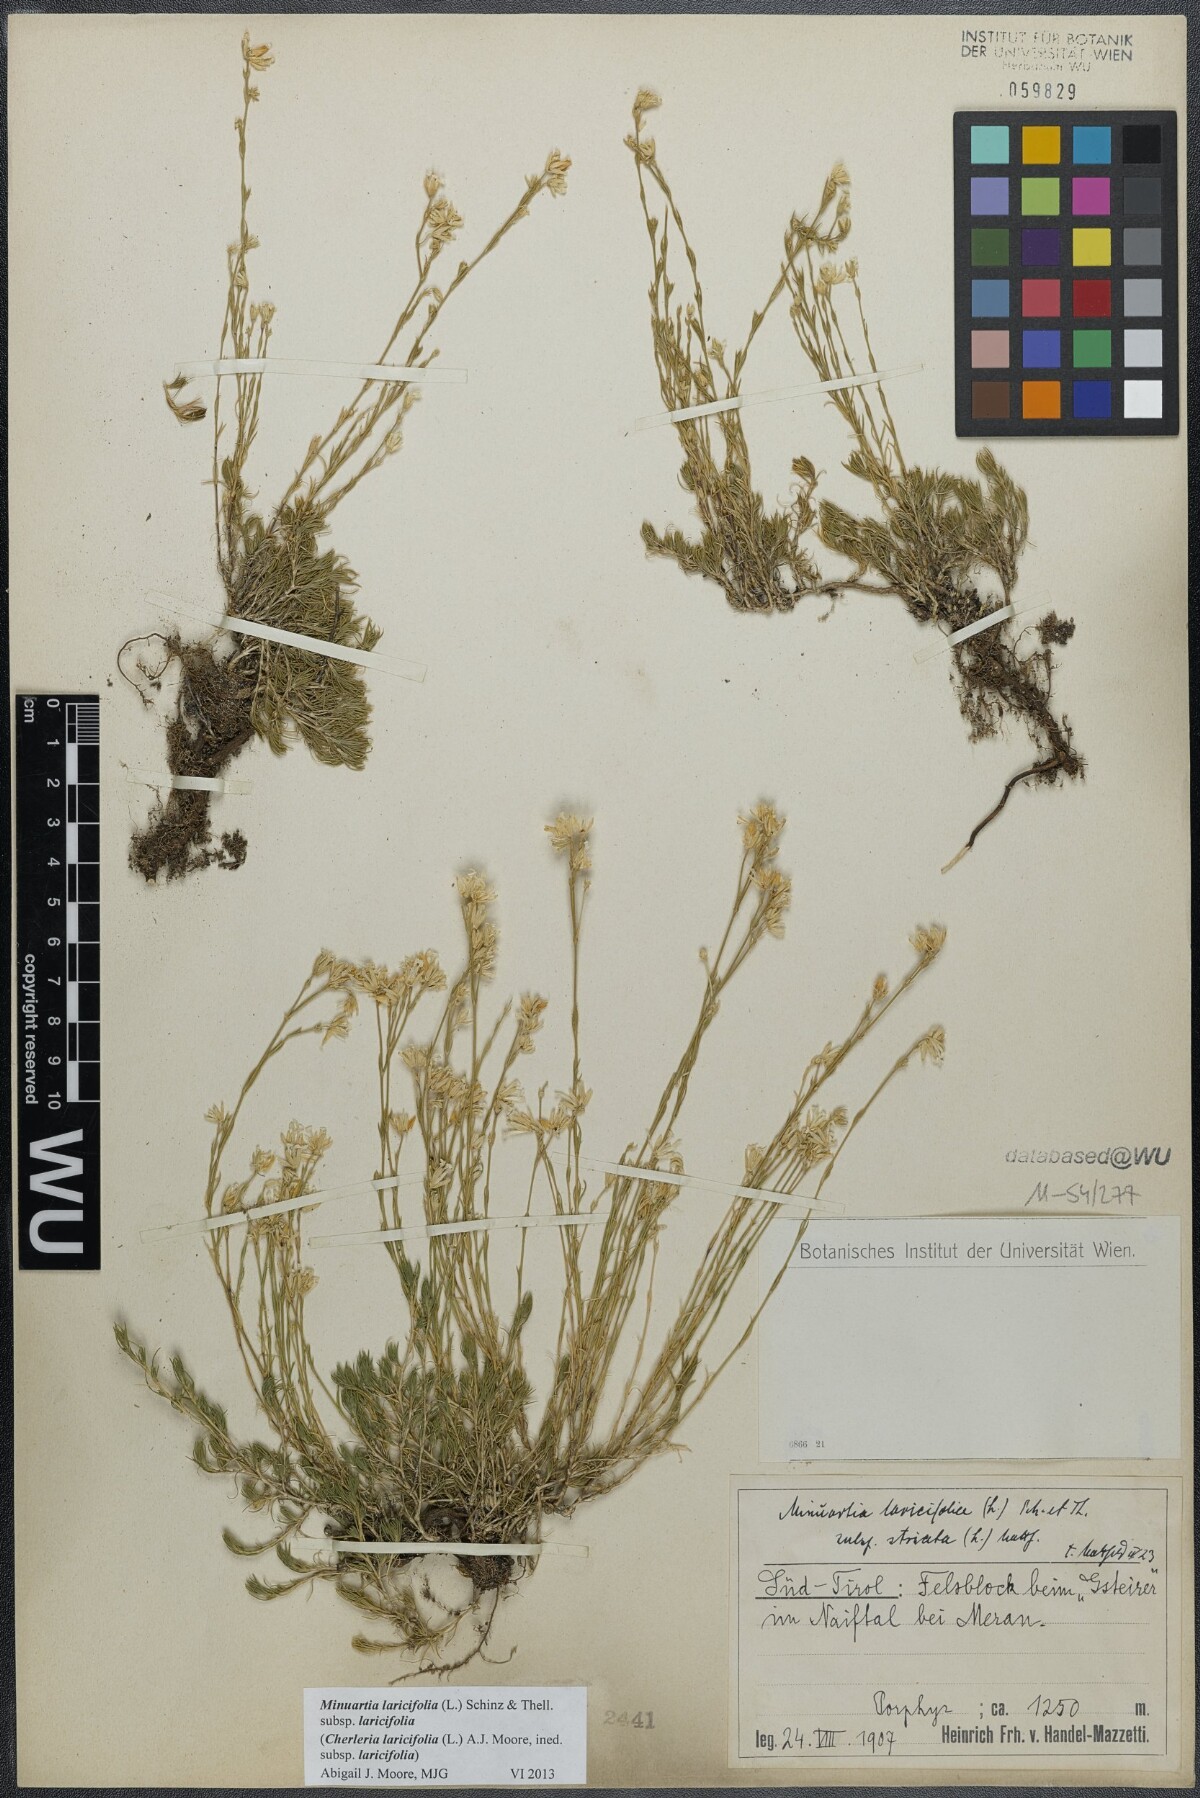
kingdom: Plantae
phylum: Tracheophyta
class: Magnoliopsida
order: Caryophyllales
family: Caryophyllaceae
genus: Cherleria
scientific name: Cherleria laricifolia
